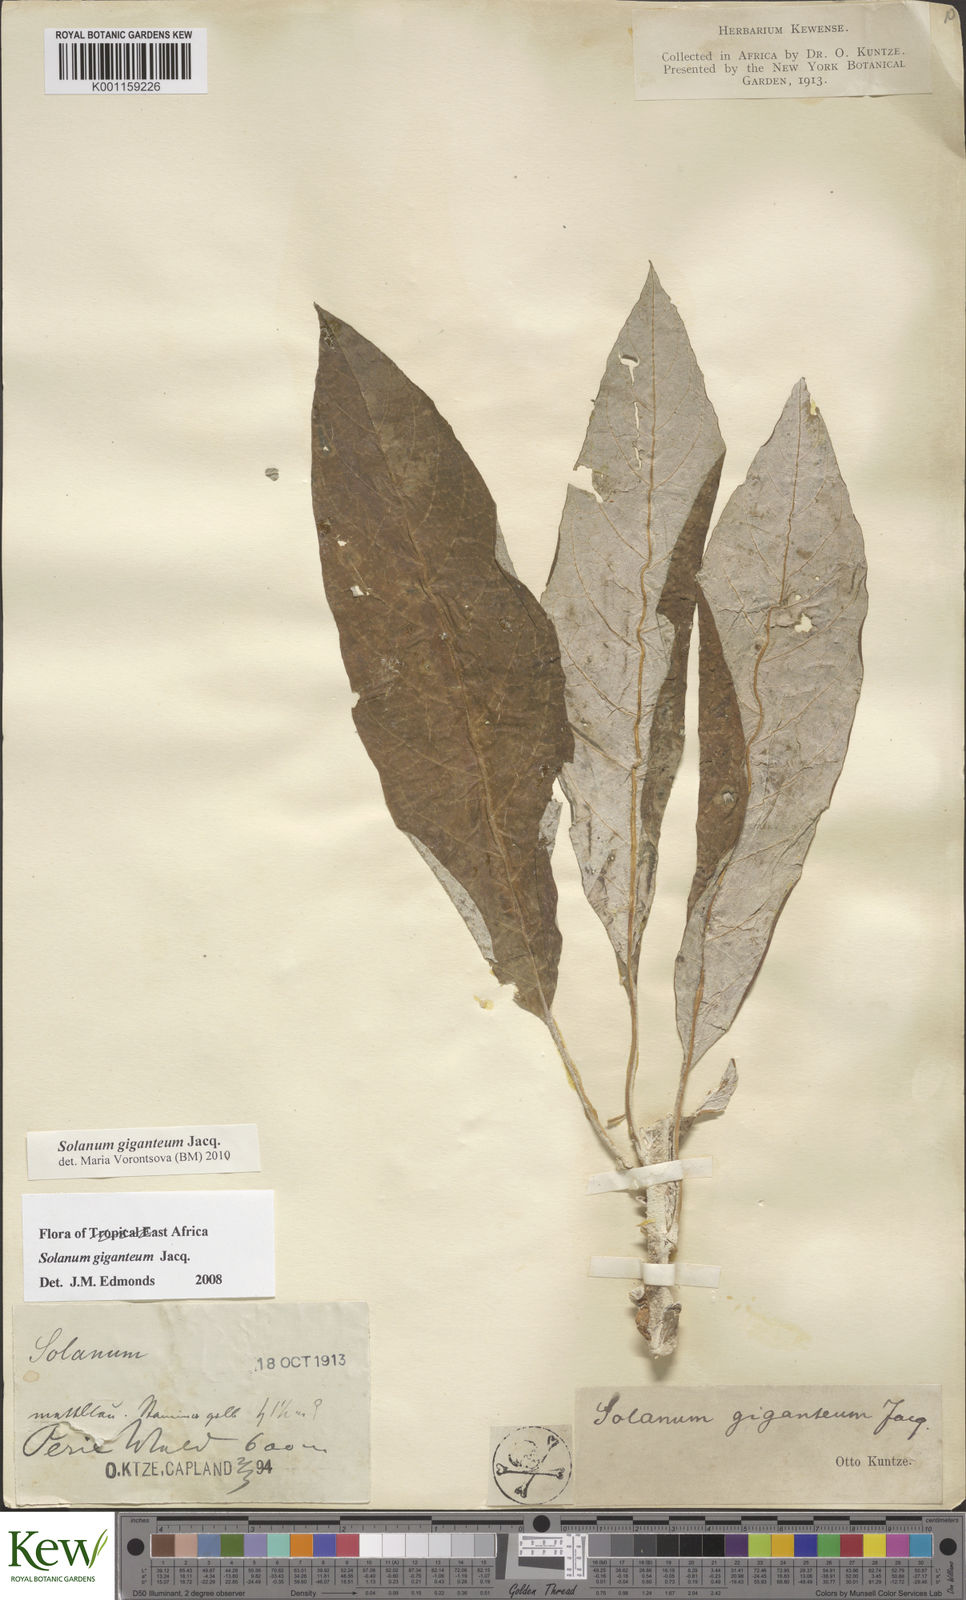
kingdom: Plantae
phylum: Tracheophyta
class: Magnoliopsida
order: Solanales
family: Solanaceae
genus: Solanum
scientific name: Solanum giganteum
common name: Healing-leaf-tree
